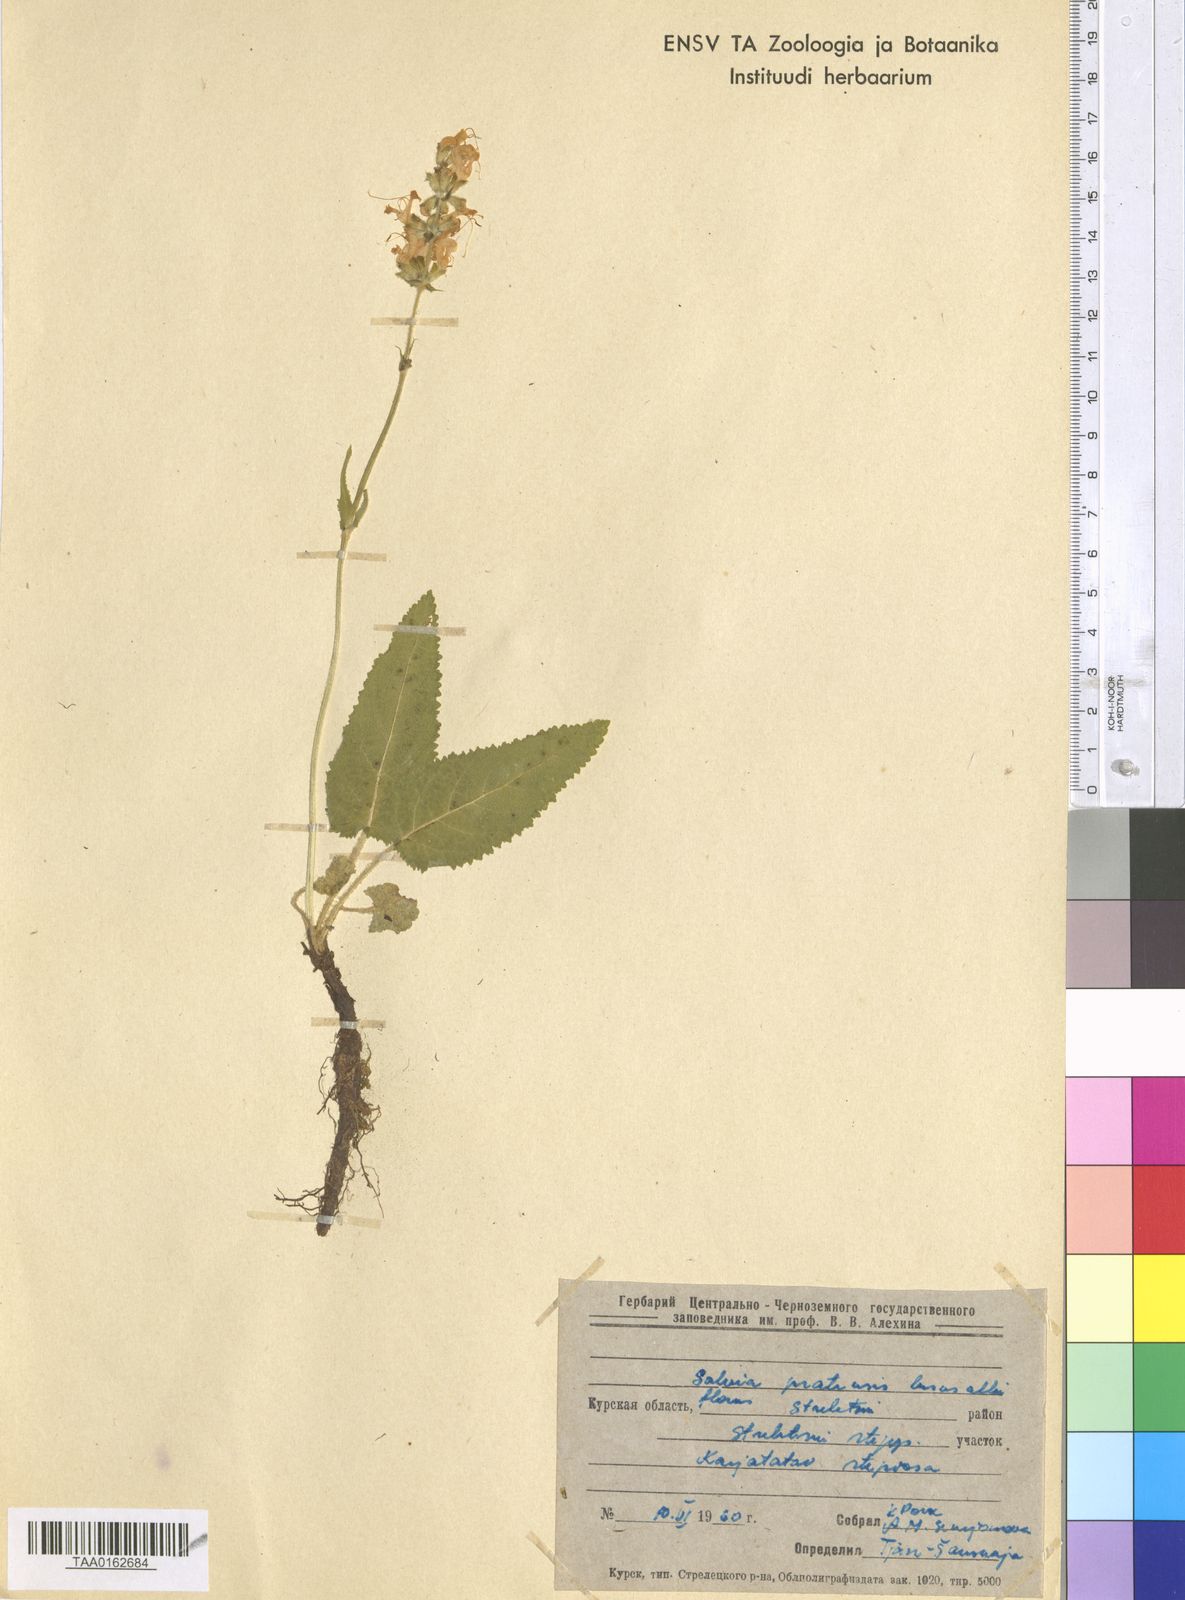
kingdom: Plantae
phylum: Tracheophyta
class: Magnoliopsida
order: Lamiales
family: Lamiaceae
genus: Salvia
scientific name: Salvia pratensis
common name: Meadow sage
